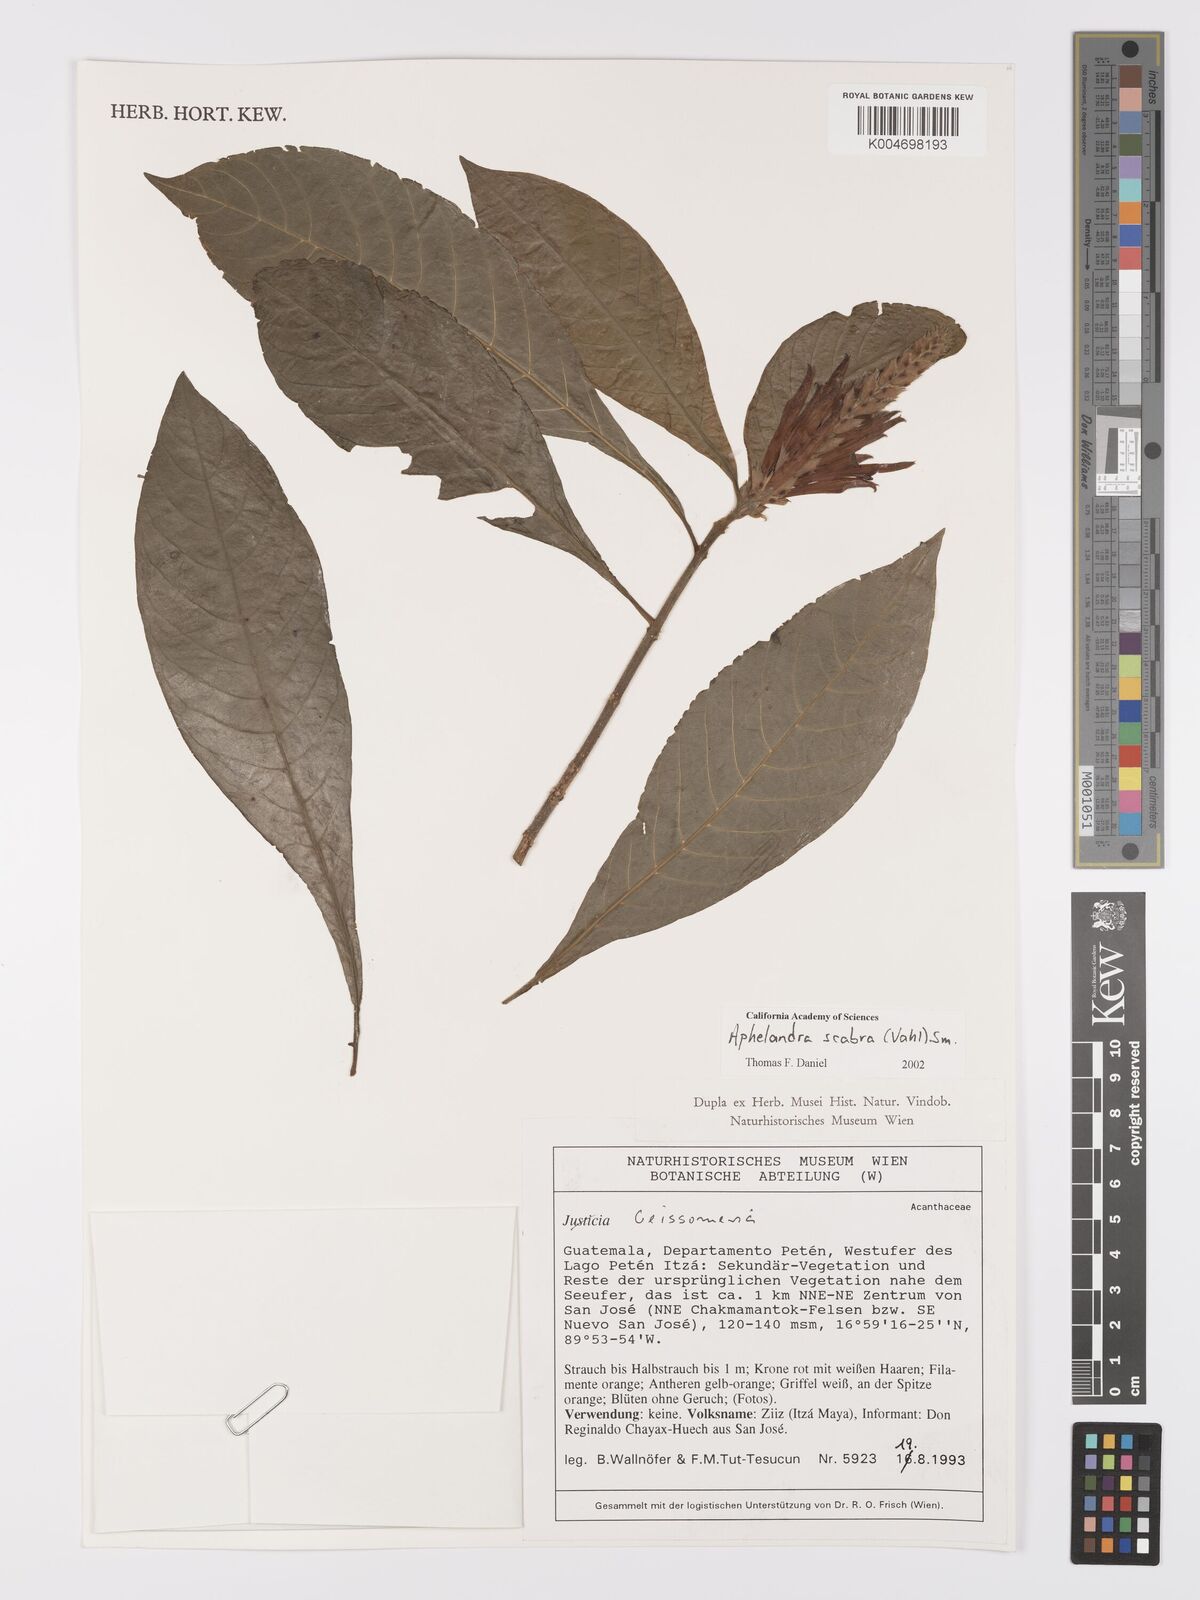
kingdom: Plantae
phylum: Tracheophyta
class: Magnoliopsida
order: Lamiales
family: Acanthaceae
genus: Aphelandra
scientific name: Aphelandra scabra
